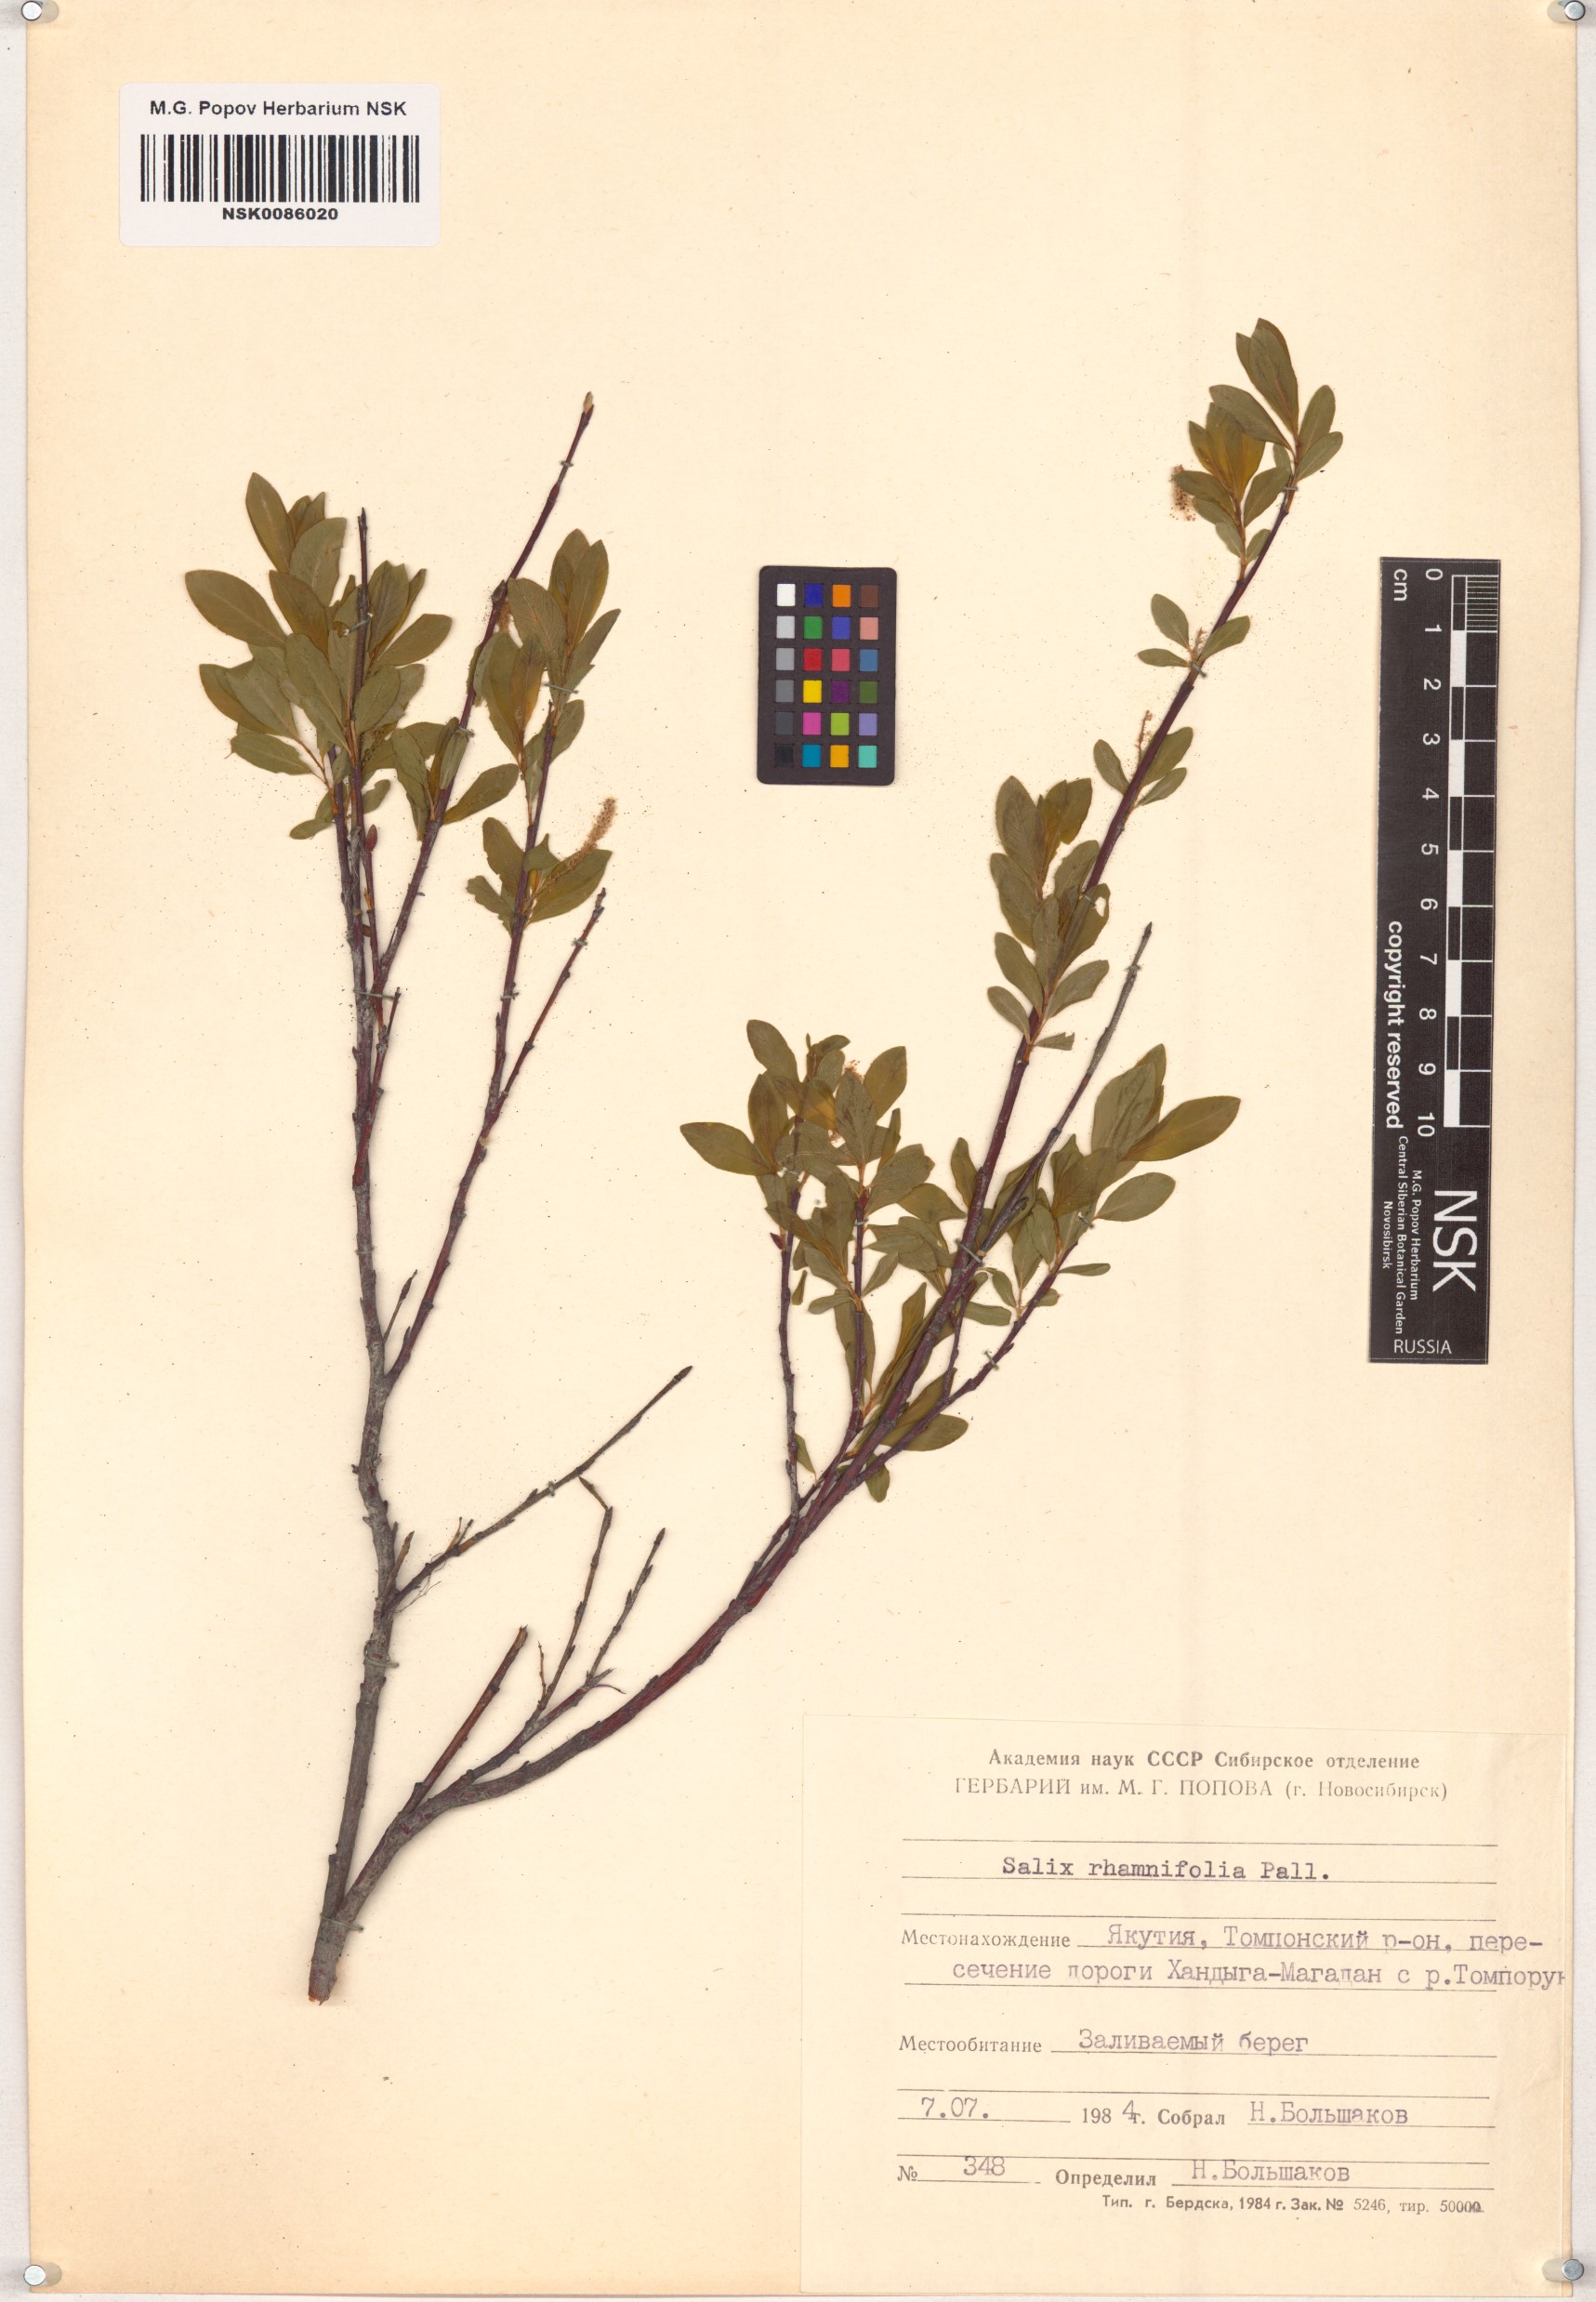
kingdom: Plantae
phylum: Tracheophyta
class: Magnoliopsida
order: Malpighiales
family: Salicaceae
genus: Salix
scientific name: Salix rhamnifolia
